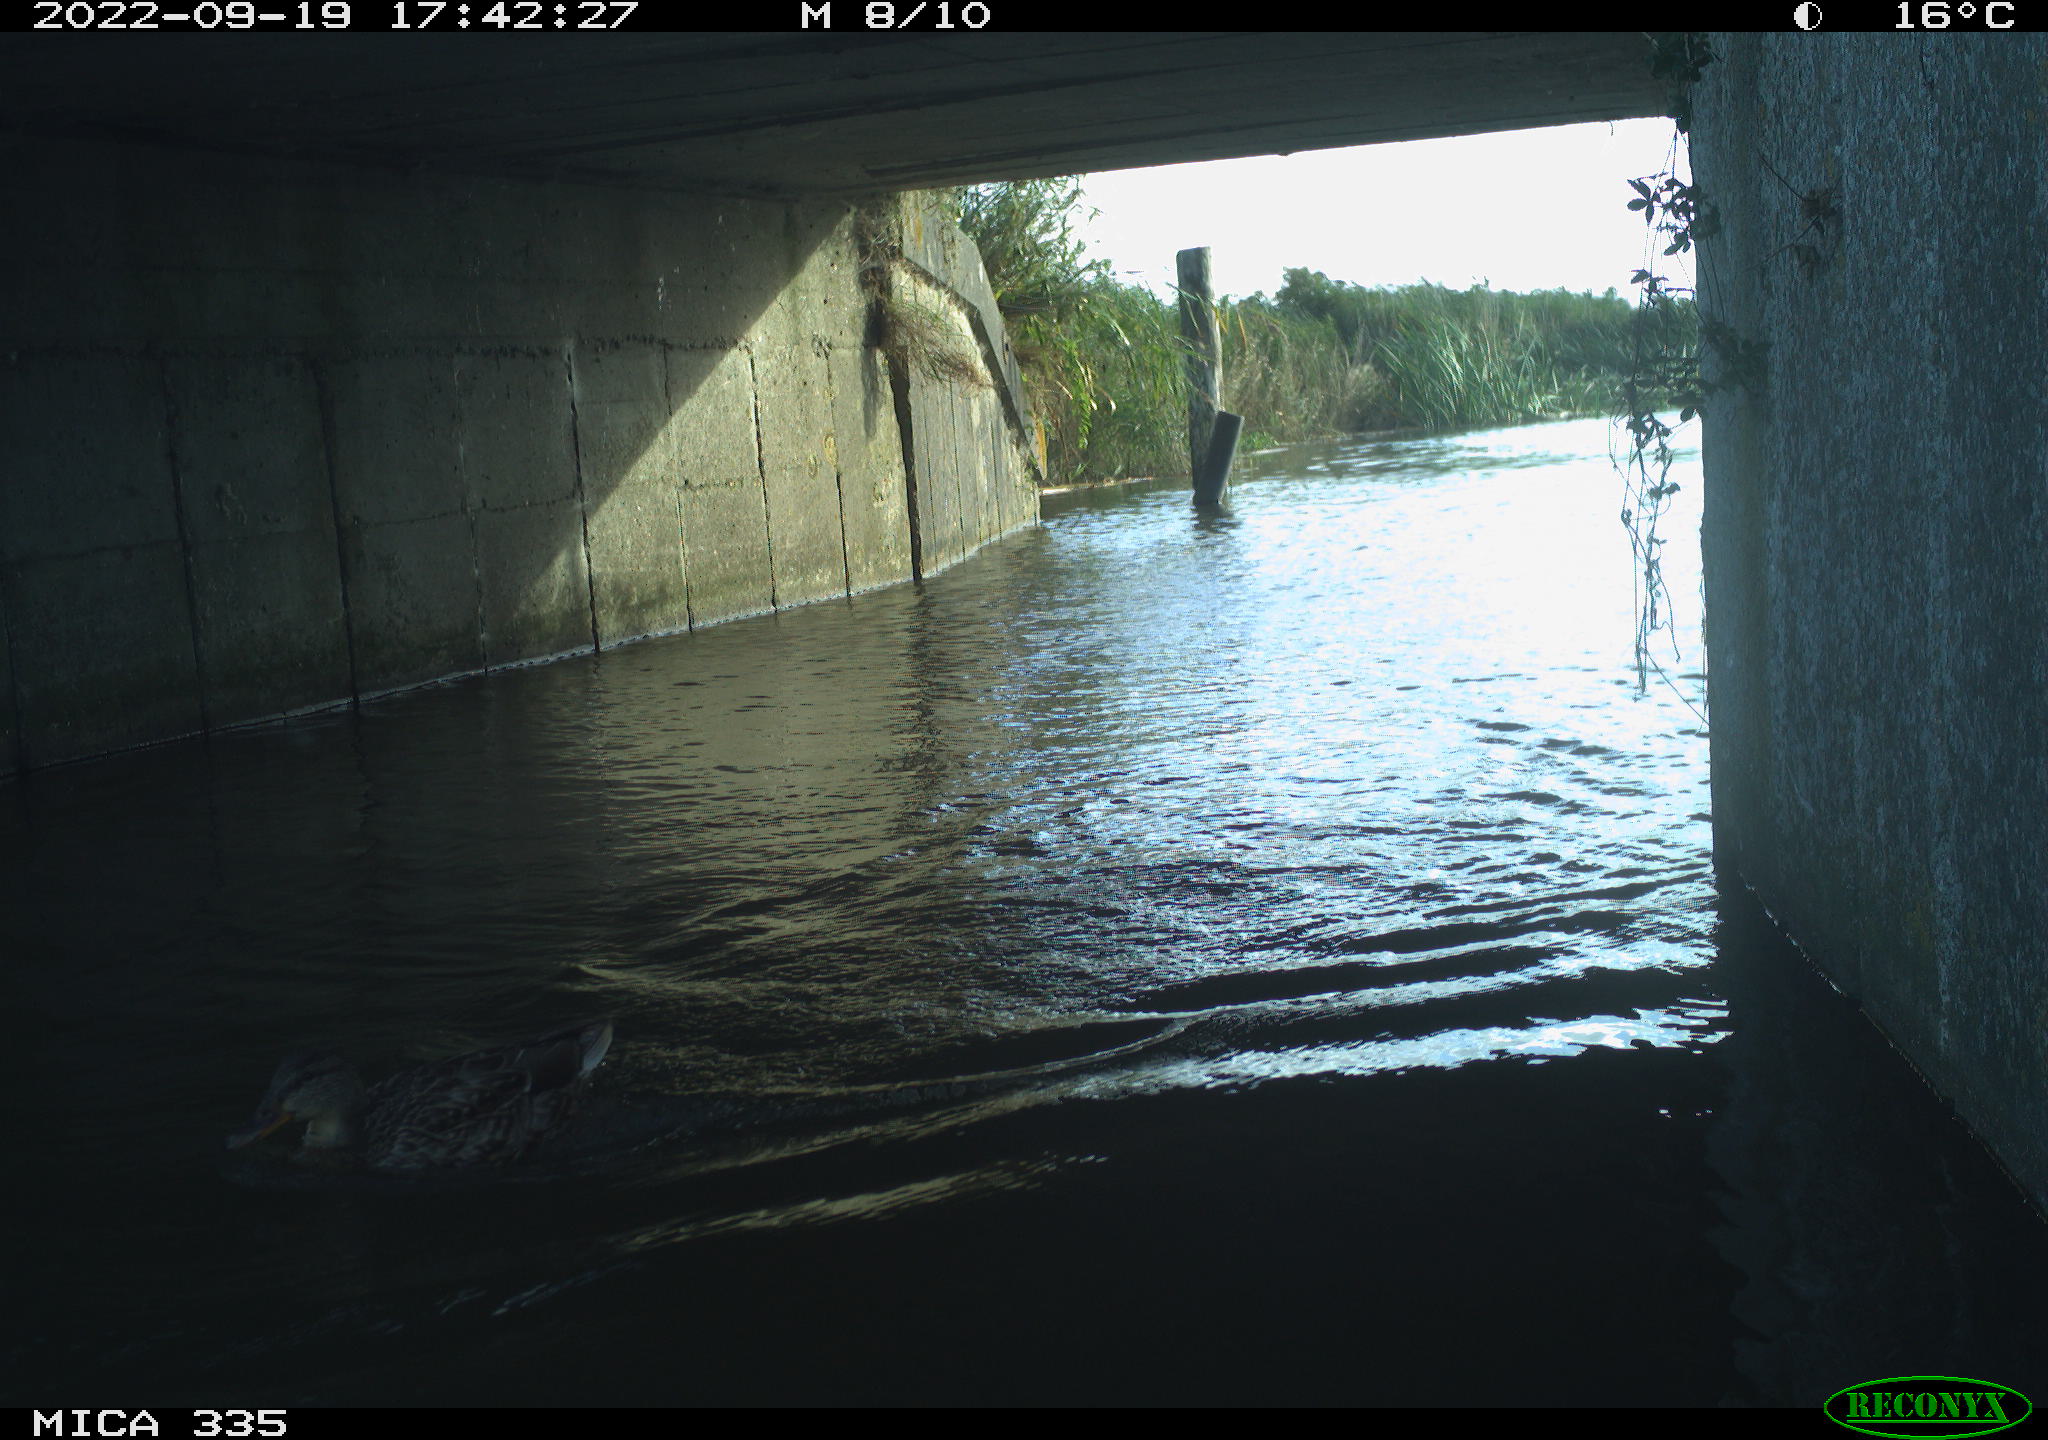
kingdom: Animalia
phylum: Chordata
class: Aves
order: Gruiformes
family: Rallidae
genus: Gallinula
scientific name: Gallinula chloropus
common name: Common moorhen
